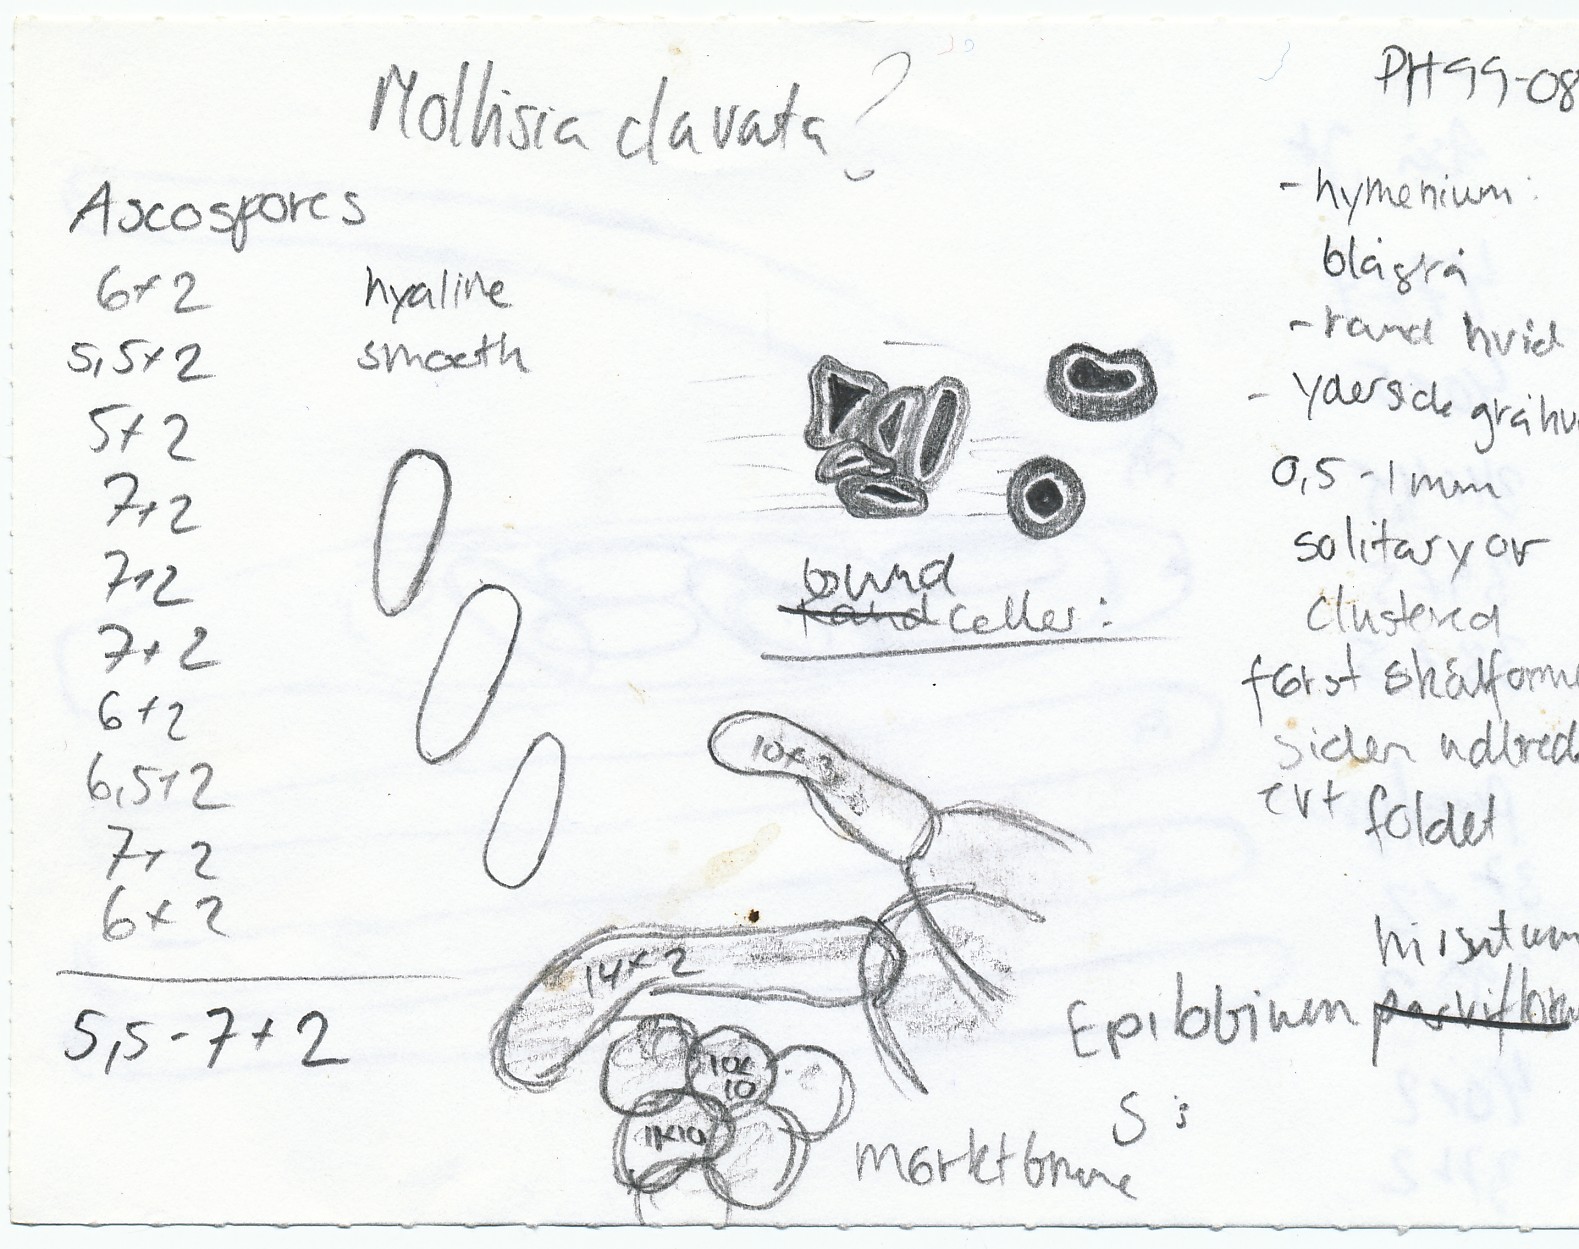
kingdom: Fungi
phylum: Ascomycota
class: Leotiomycetes
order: Helotiales
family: Mollisiaceae
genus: Mollisia
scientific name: Mollisia clavata
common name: dueurt-gråskive
